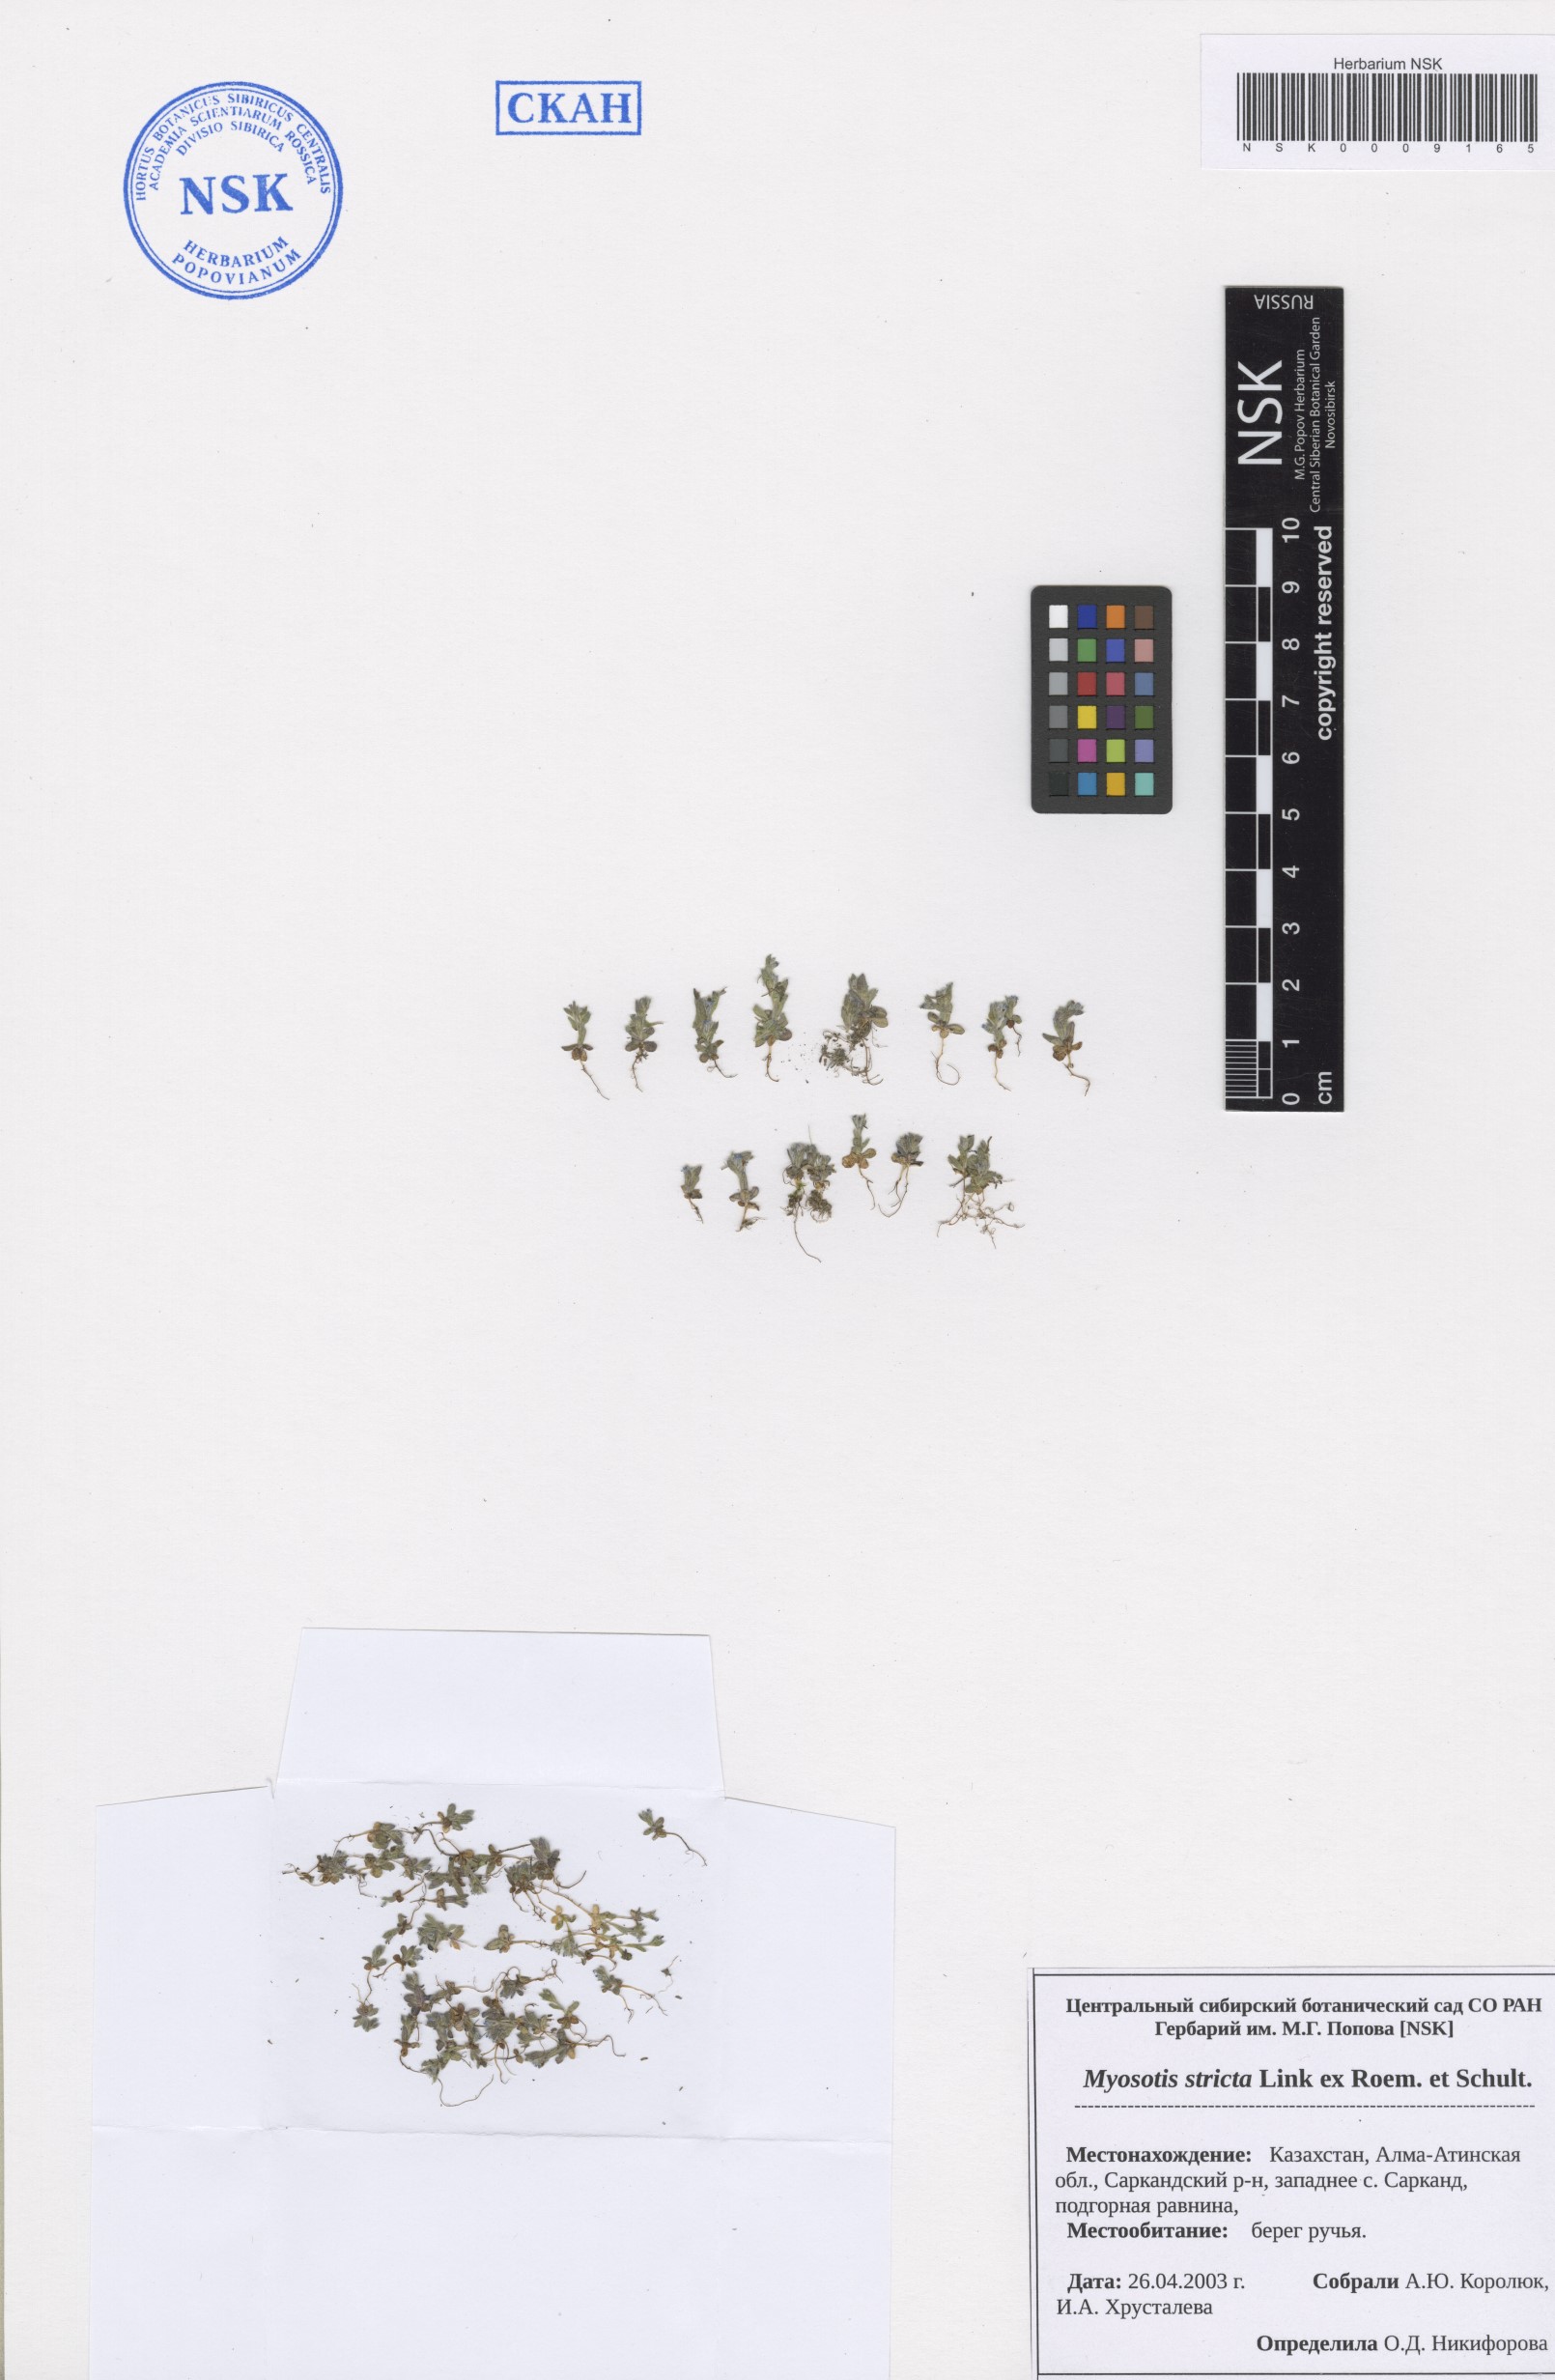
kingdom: Plantae
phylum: Tracheophyta
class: Magnoliopsida
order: Boraginales
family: Boraginaceae
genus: Myosotis
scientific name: Myosotis stricta
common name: Strict forget-me-not
